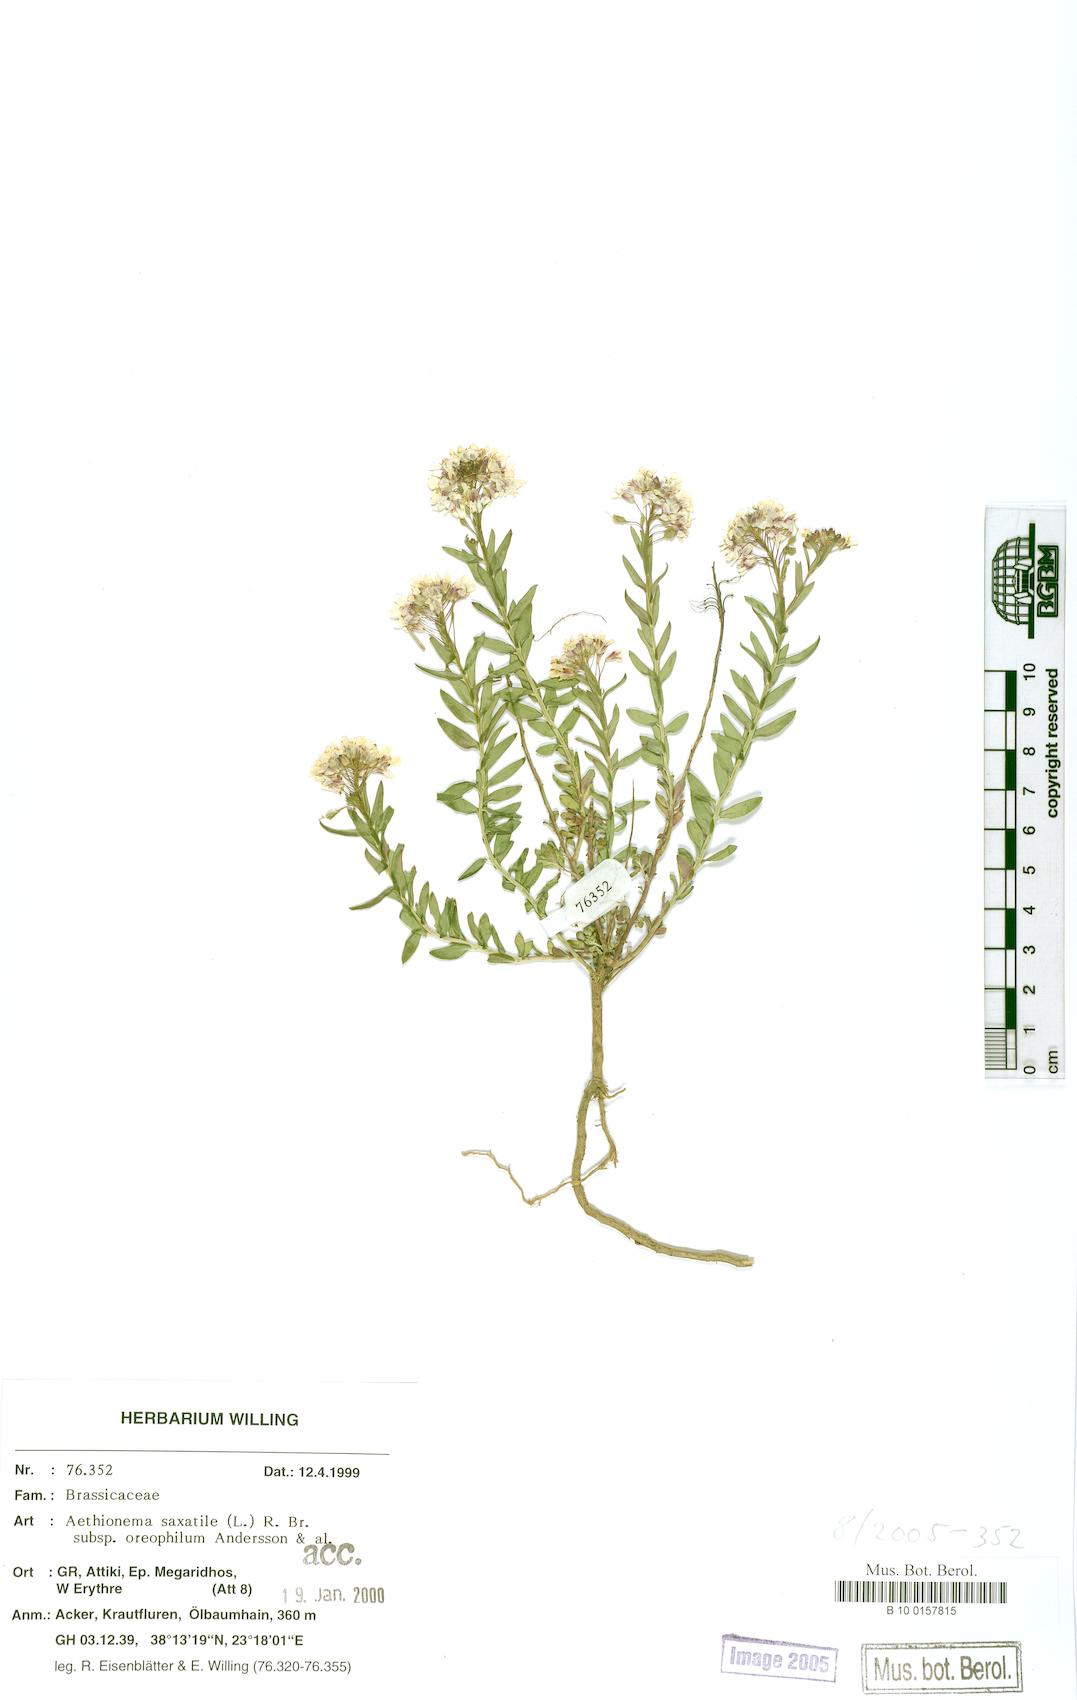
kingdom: Plantae
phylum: Tracheophyta
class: Magnoliopsida
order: Brassicales
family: Brassicaceae
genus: Aethionema
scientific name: Aethionema saxatile
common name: Burnt candytuft
